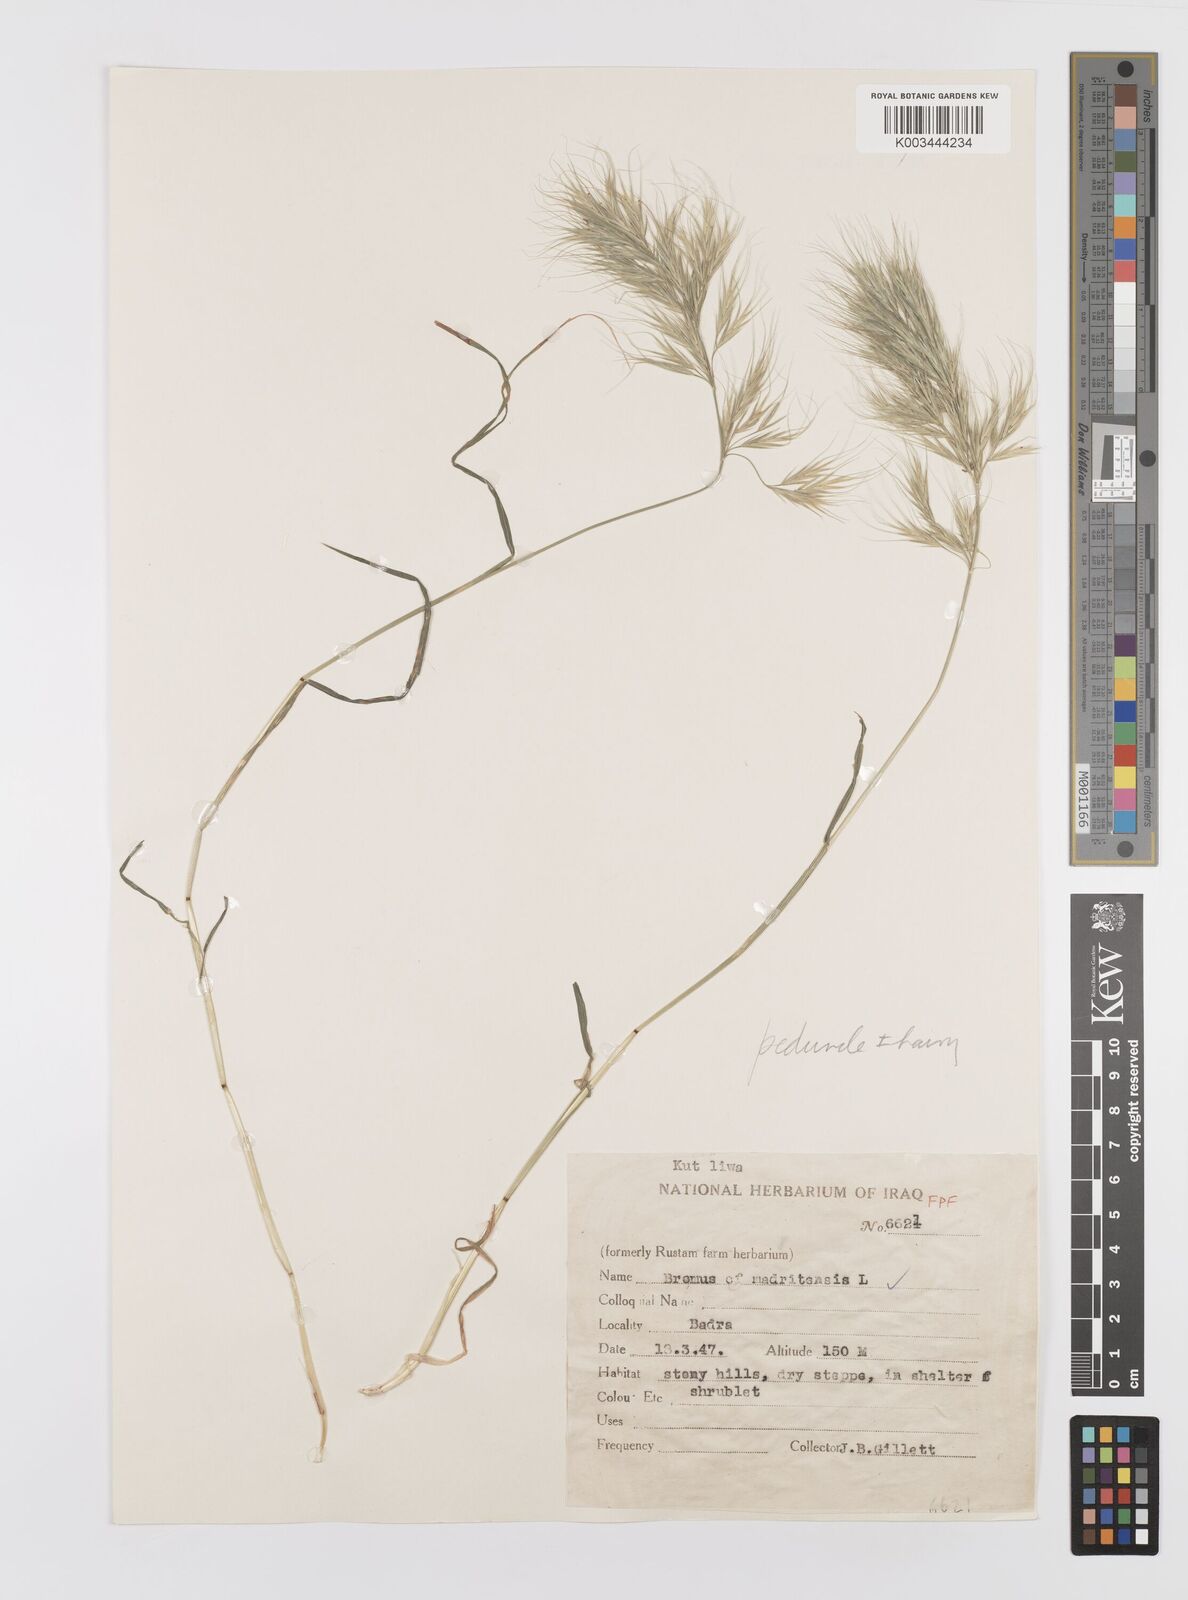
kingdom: Plantae
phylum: Tracheophyta
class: Liliopsida
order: Poales
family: Poaceae
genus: Bromus
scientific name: Bromus madritensis
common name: Compact brome
